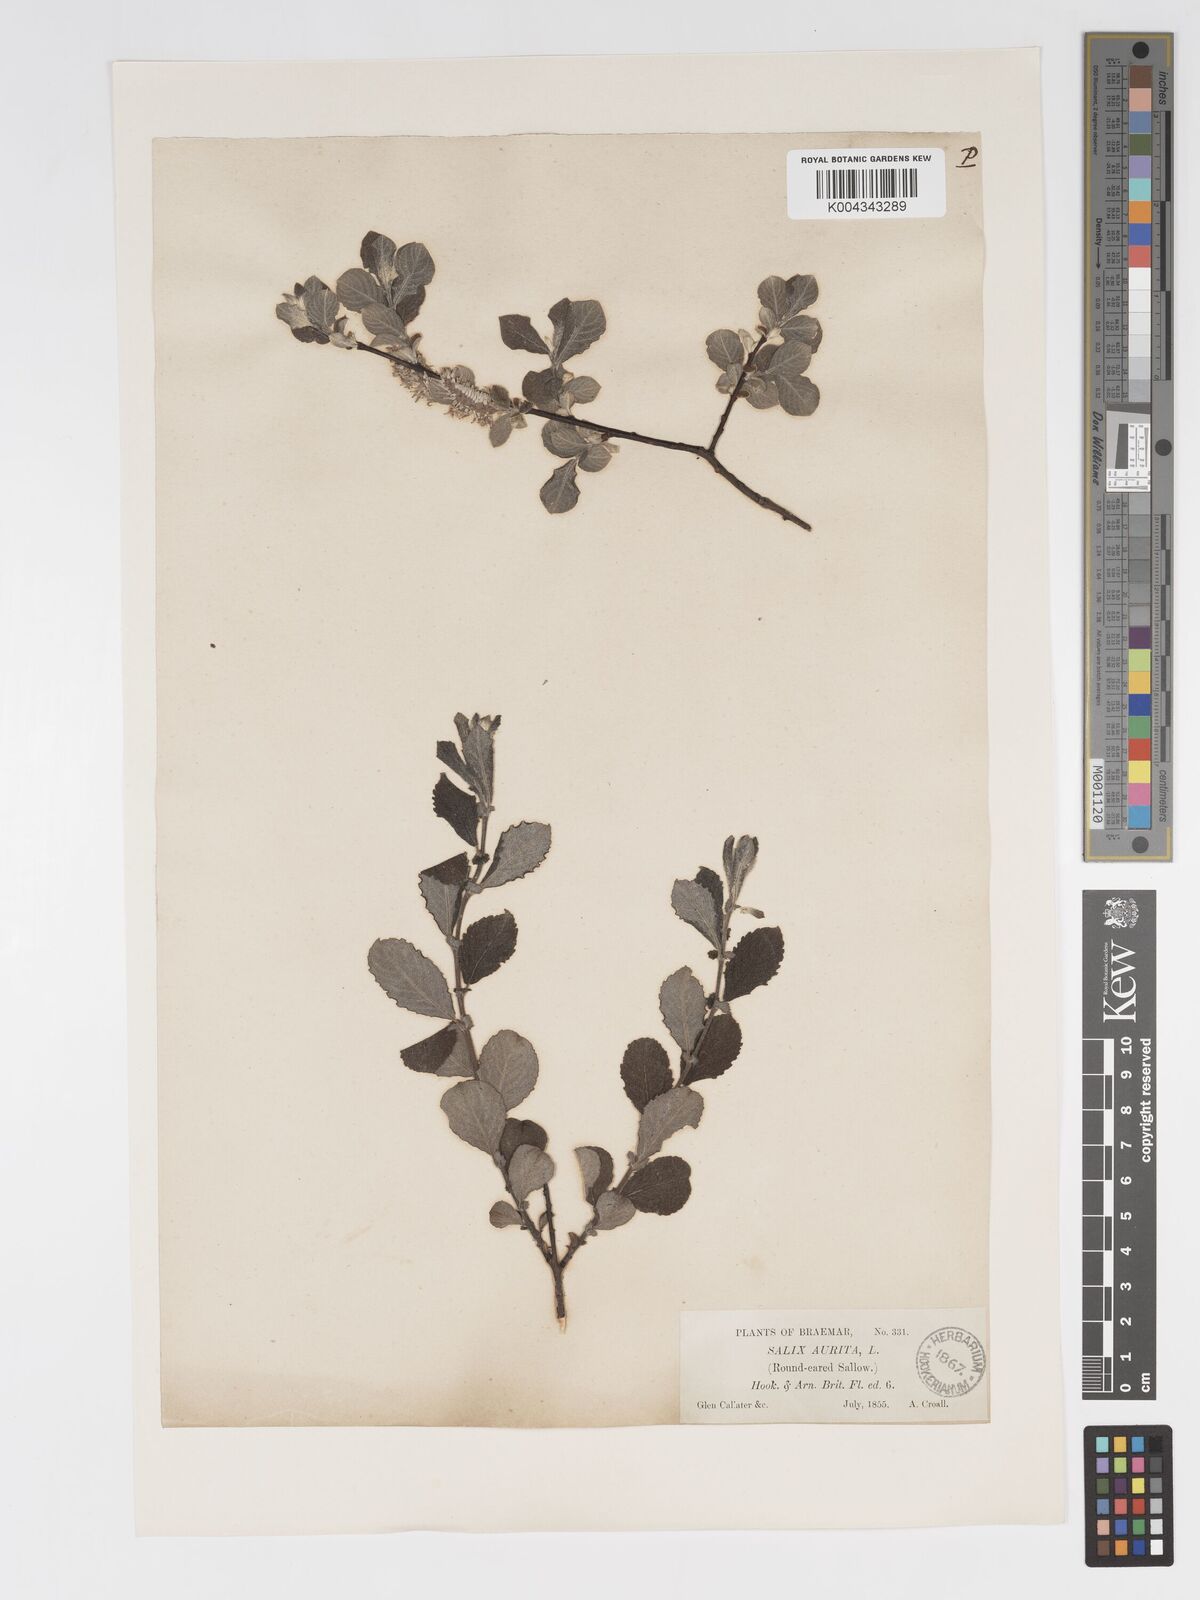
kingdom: Plantae
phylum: Tracheophyta
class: Magnoliopsida
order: Malpighiales
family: Salicaceae
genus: Salix
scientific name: Salix aurita
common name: Eared willow
